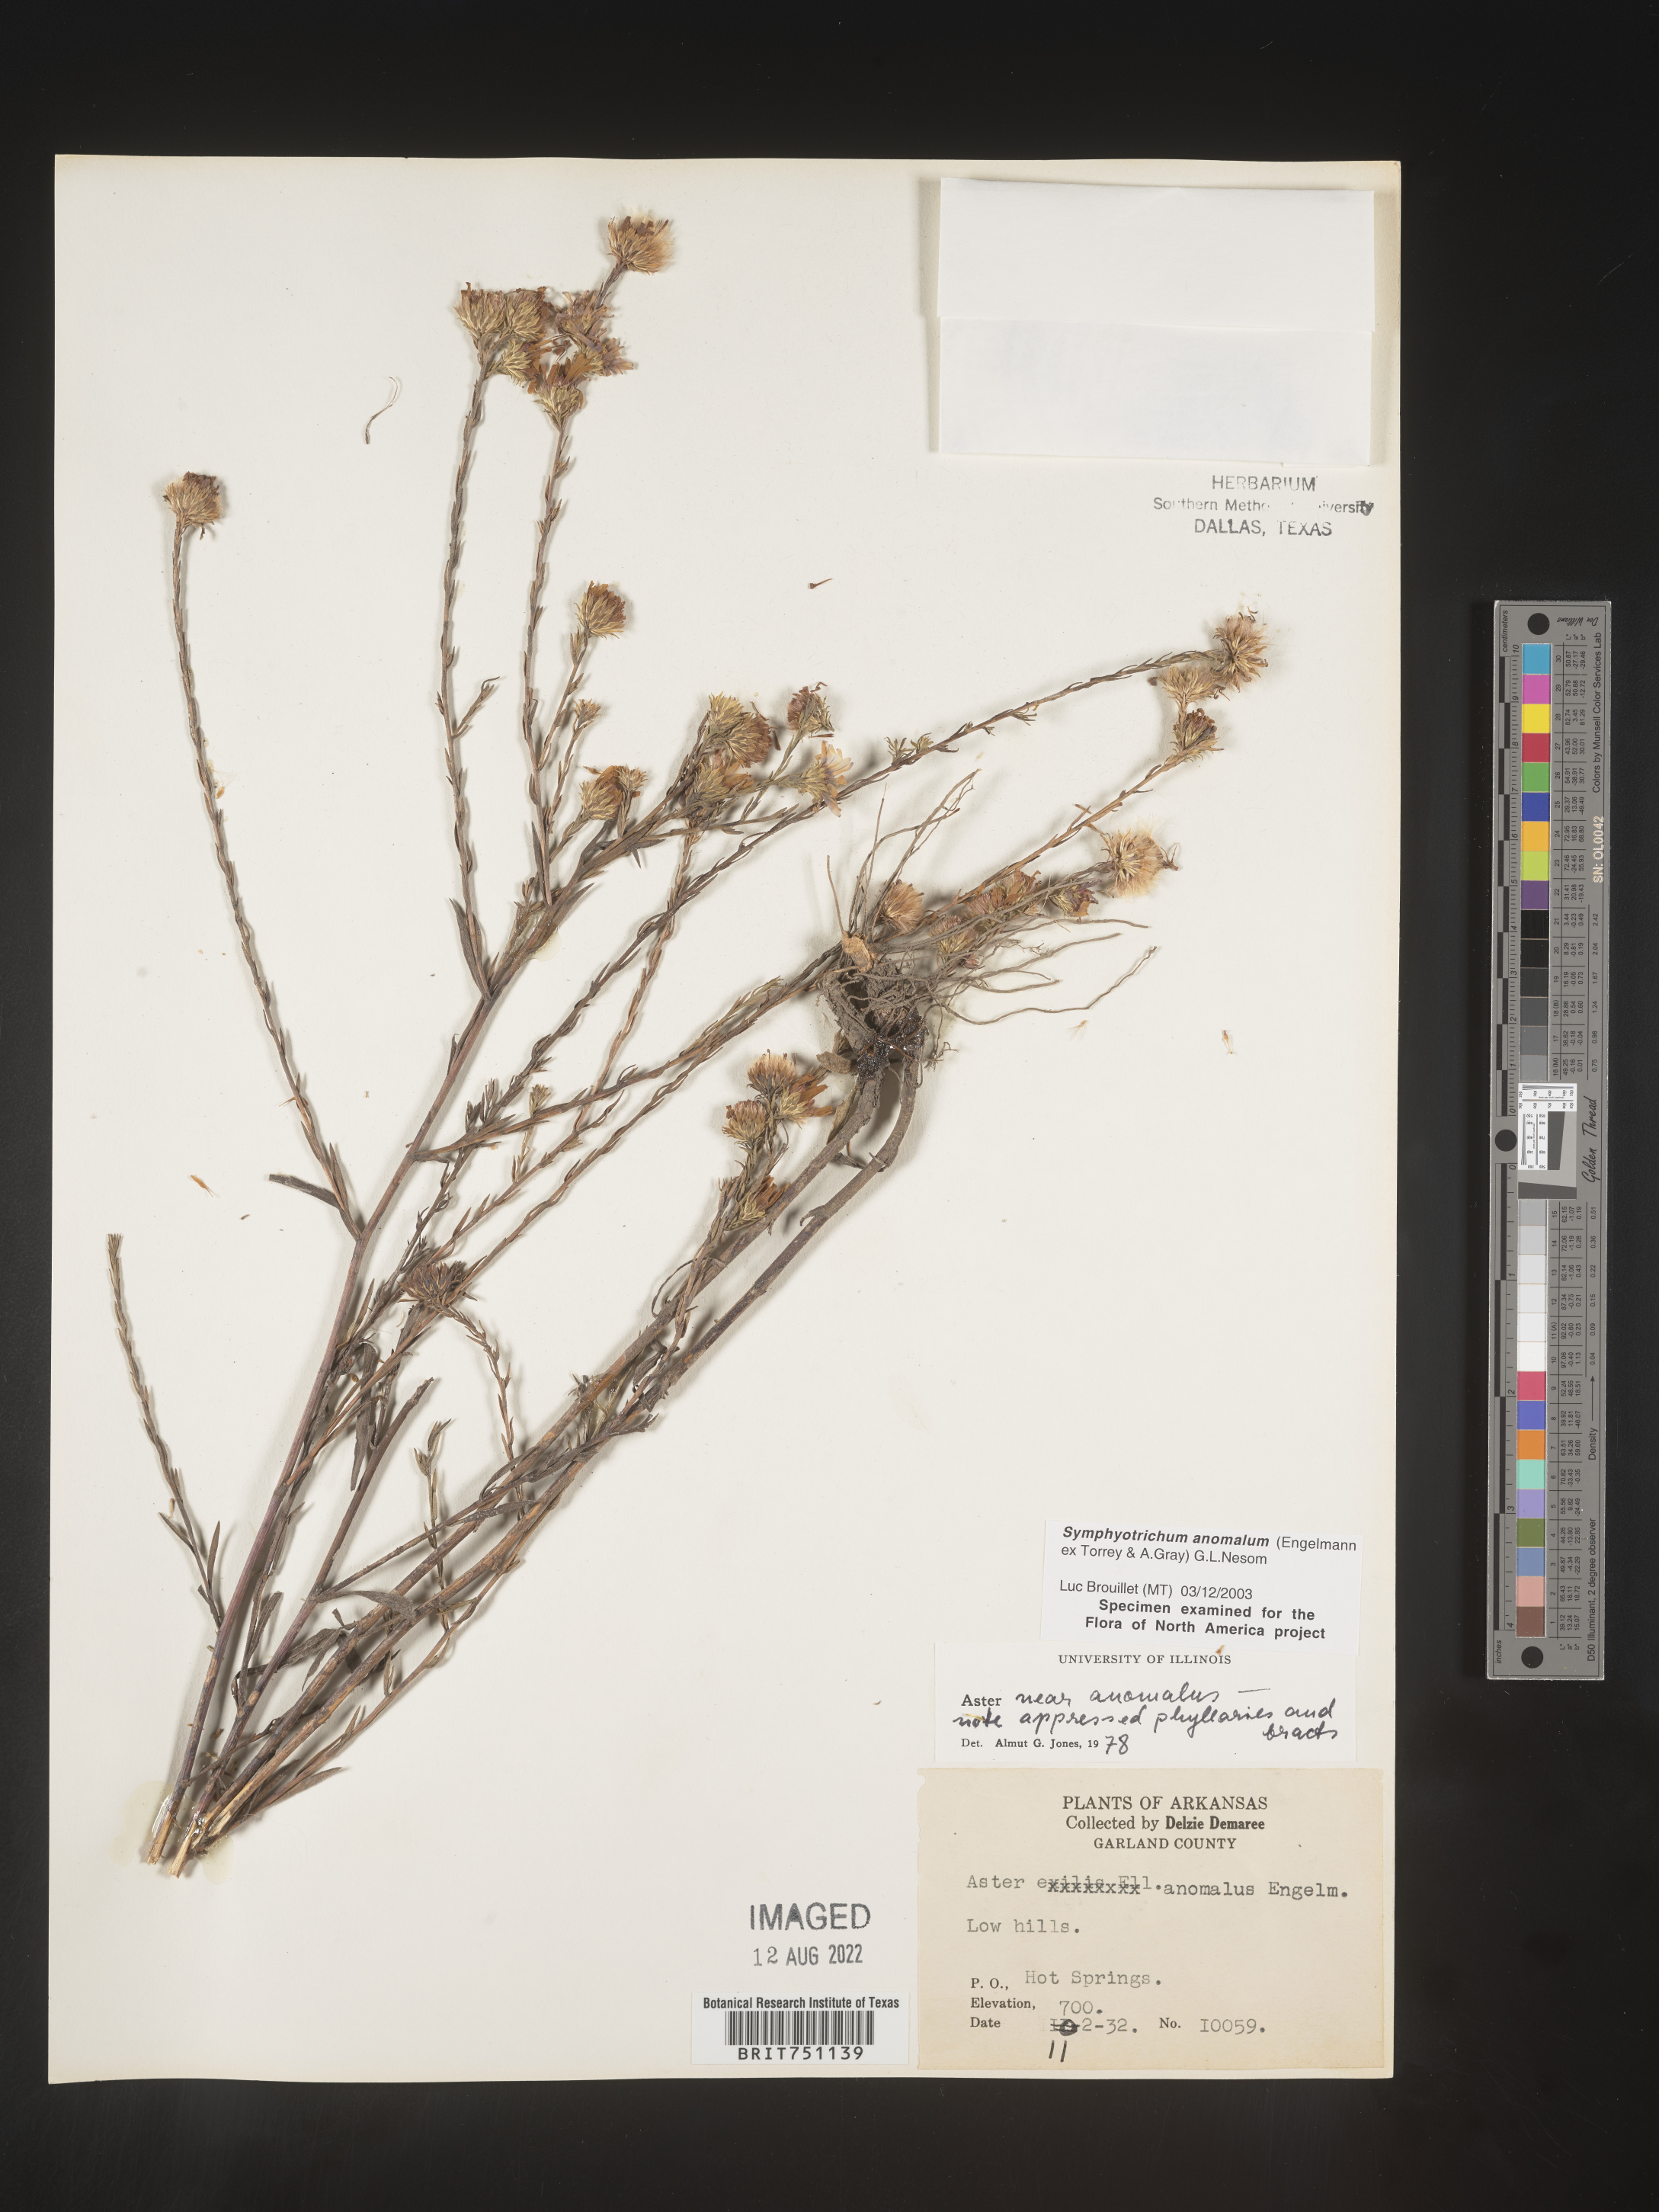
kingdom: Plantae
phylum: Tracheophyta
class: Magnoliopsida
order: Asterales
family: Asteraceae
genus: Symphyotrichum
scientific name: Symphyotrichum anomalum
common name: Many-ray aster
